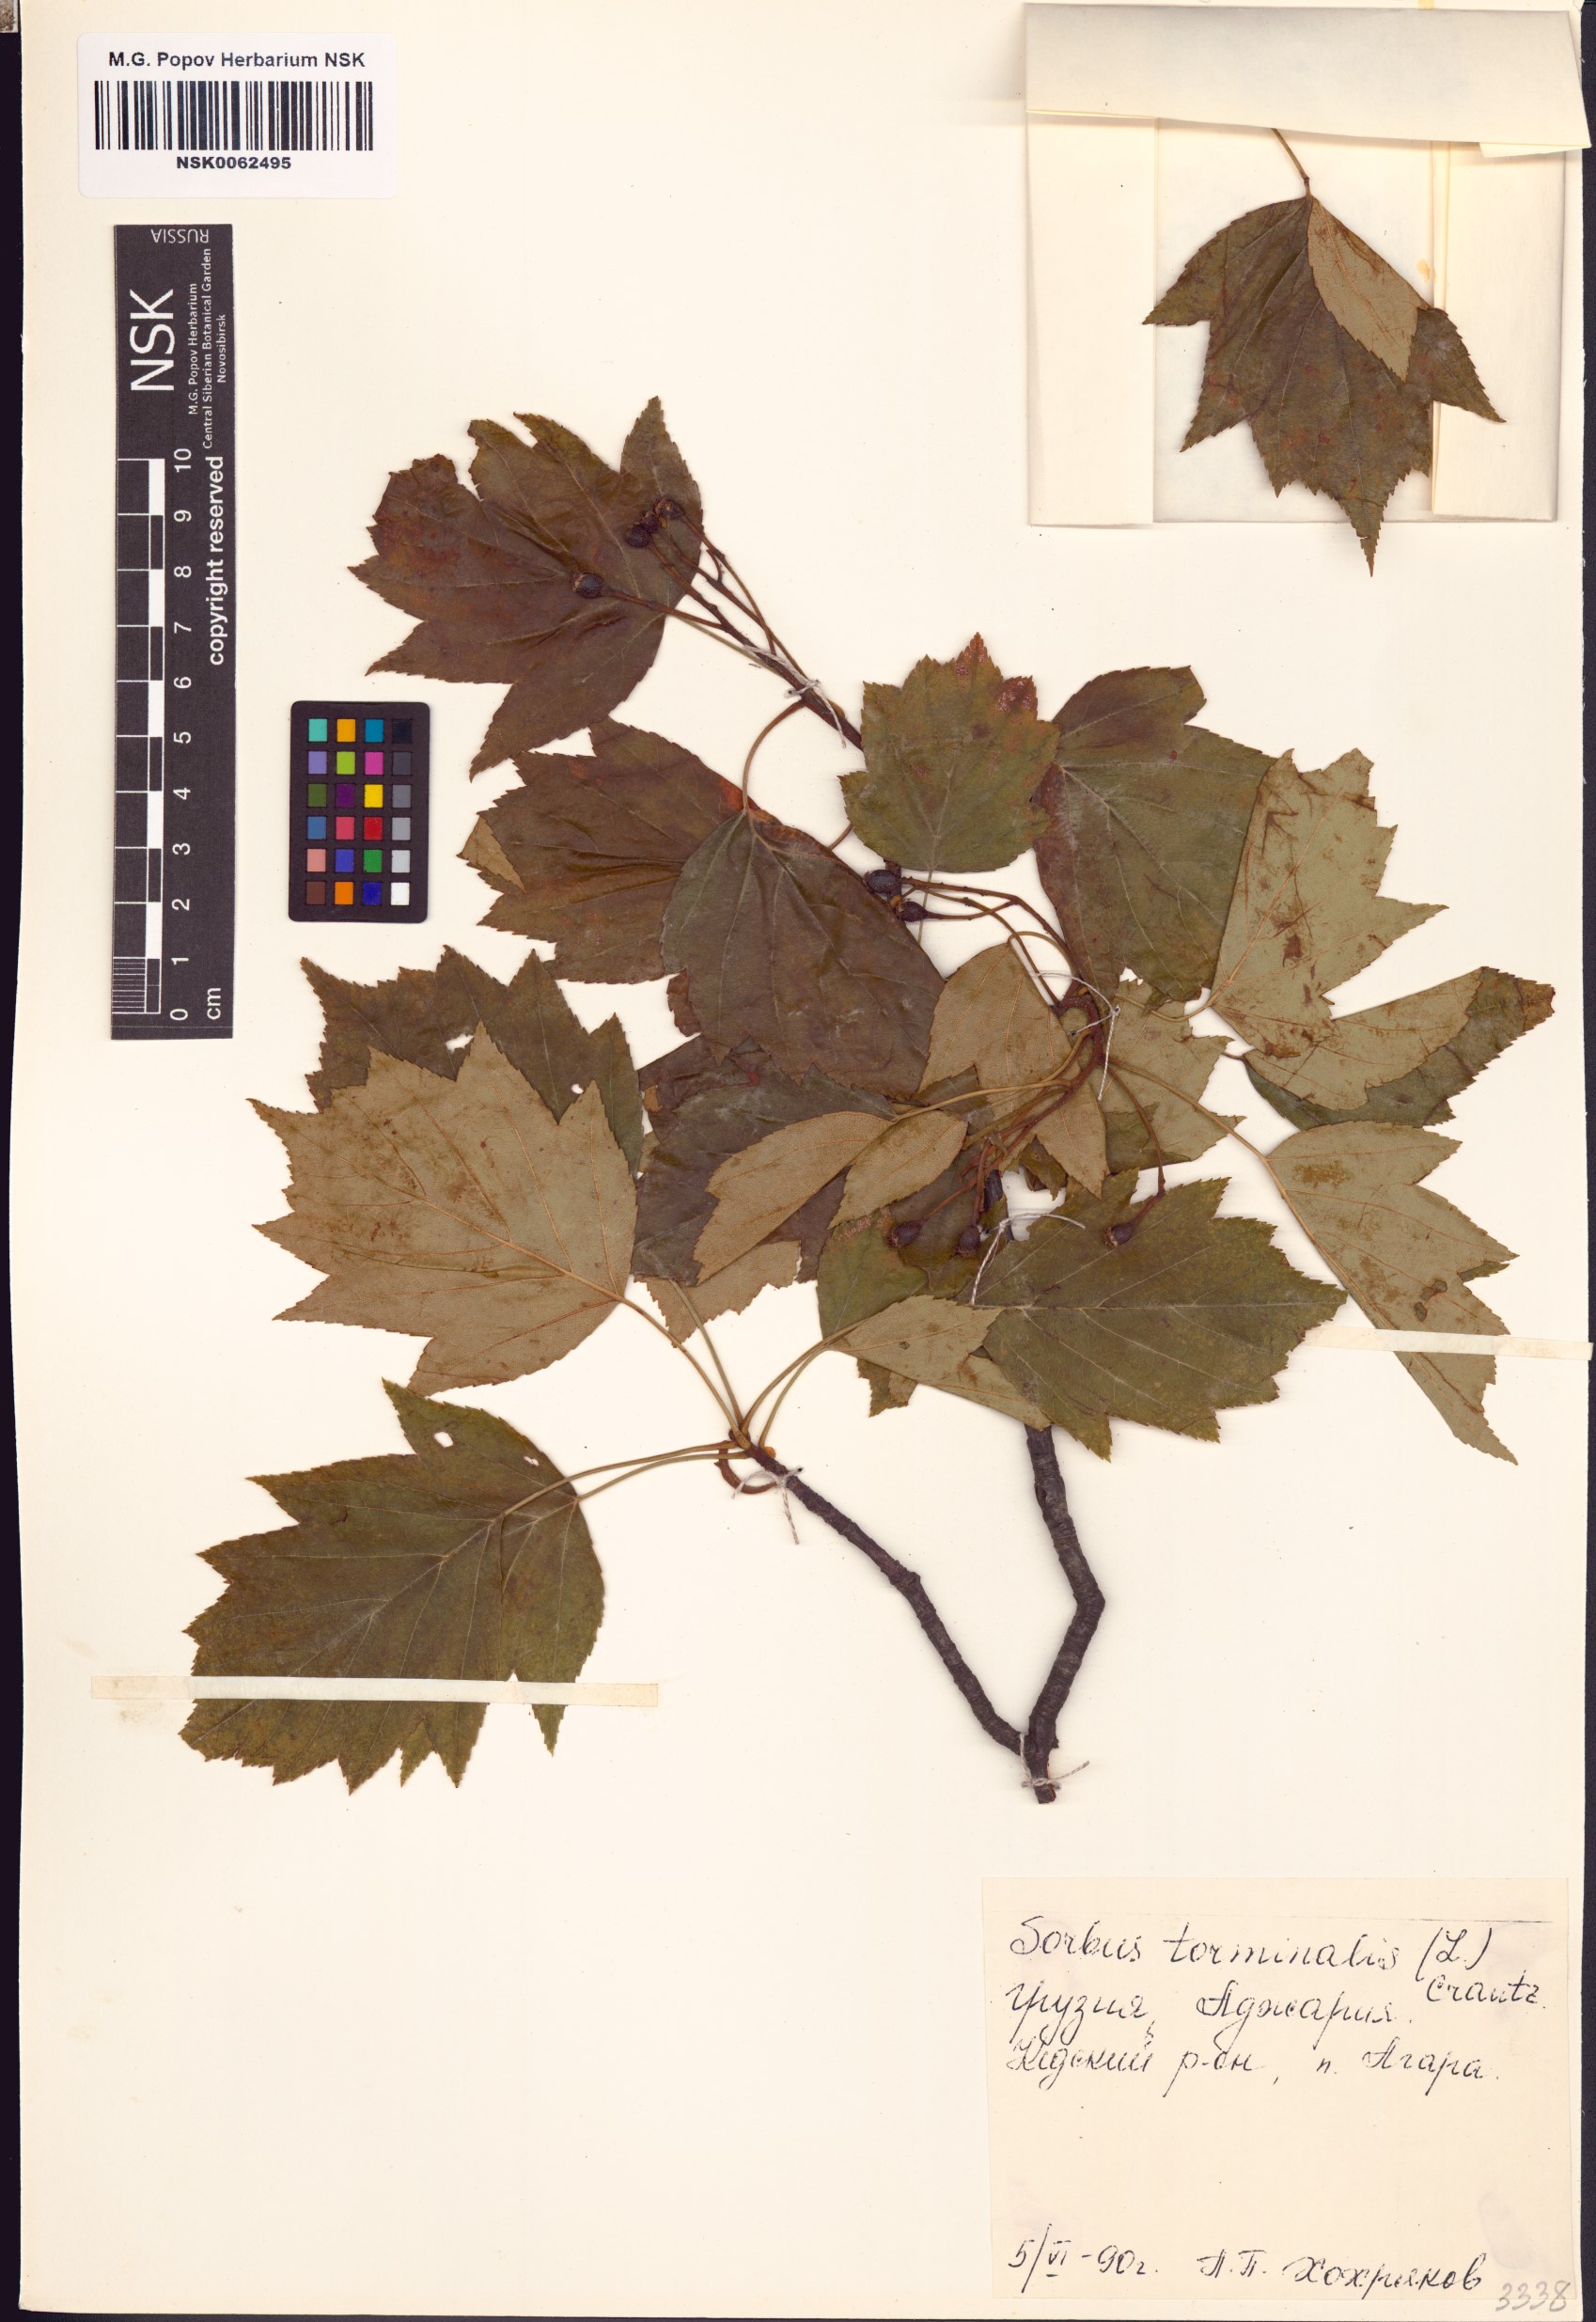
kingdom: Plantae
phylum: Tracheophyta
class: Magnoliopsida
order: Rosales
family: Rosaceae
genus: Torminalis
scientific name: Torminalis glaberrima
